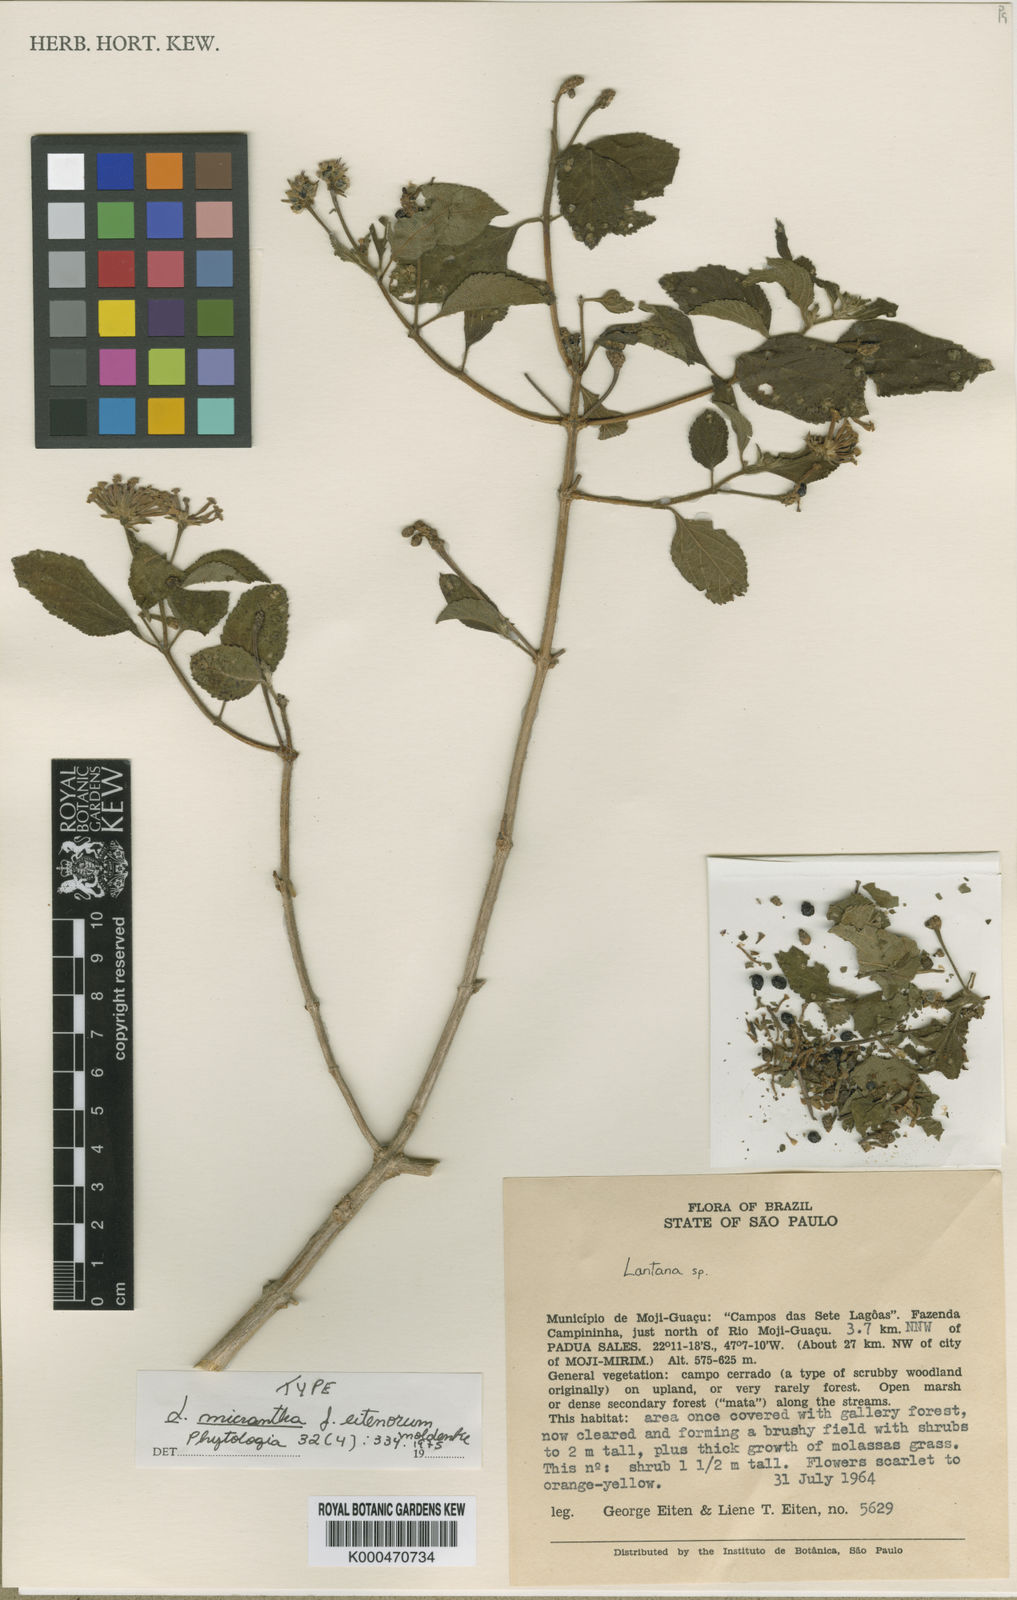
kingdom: Plantae
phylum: Tracheophyta
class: Magnoliopsida
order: Lamiales
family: Verbenaceae
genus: Lantana
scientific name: Lantana micrantha
